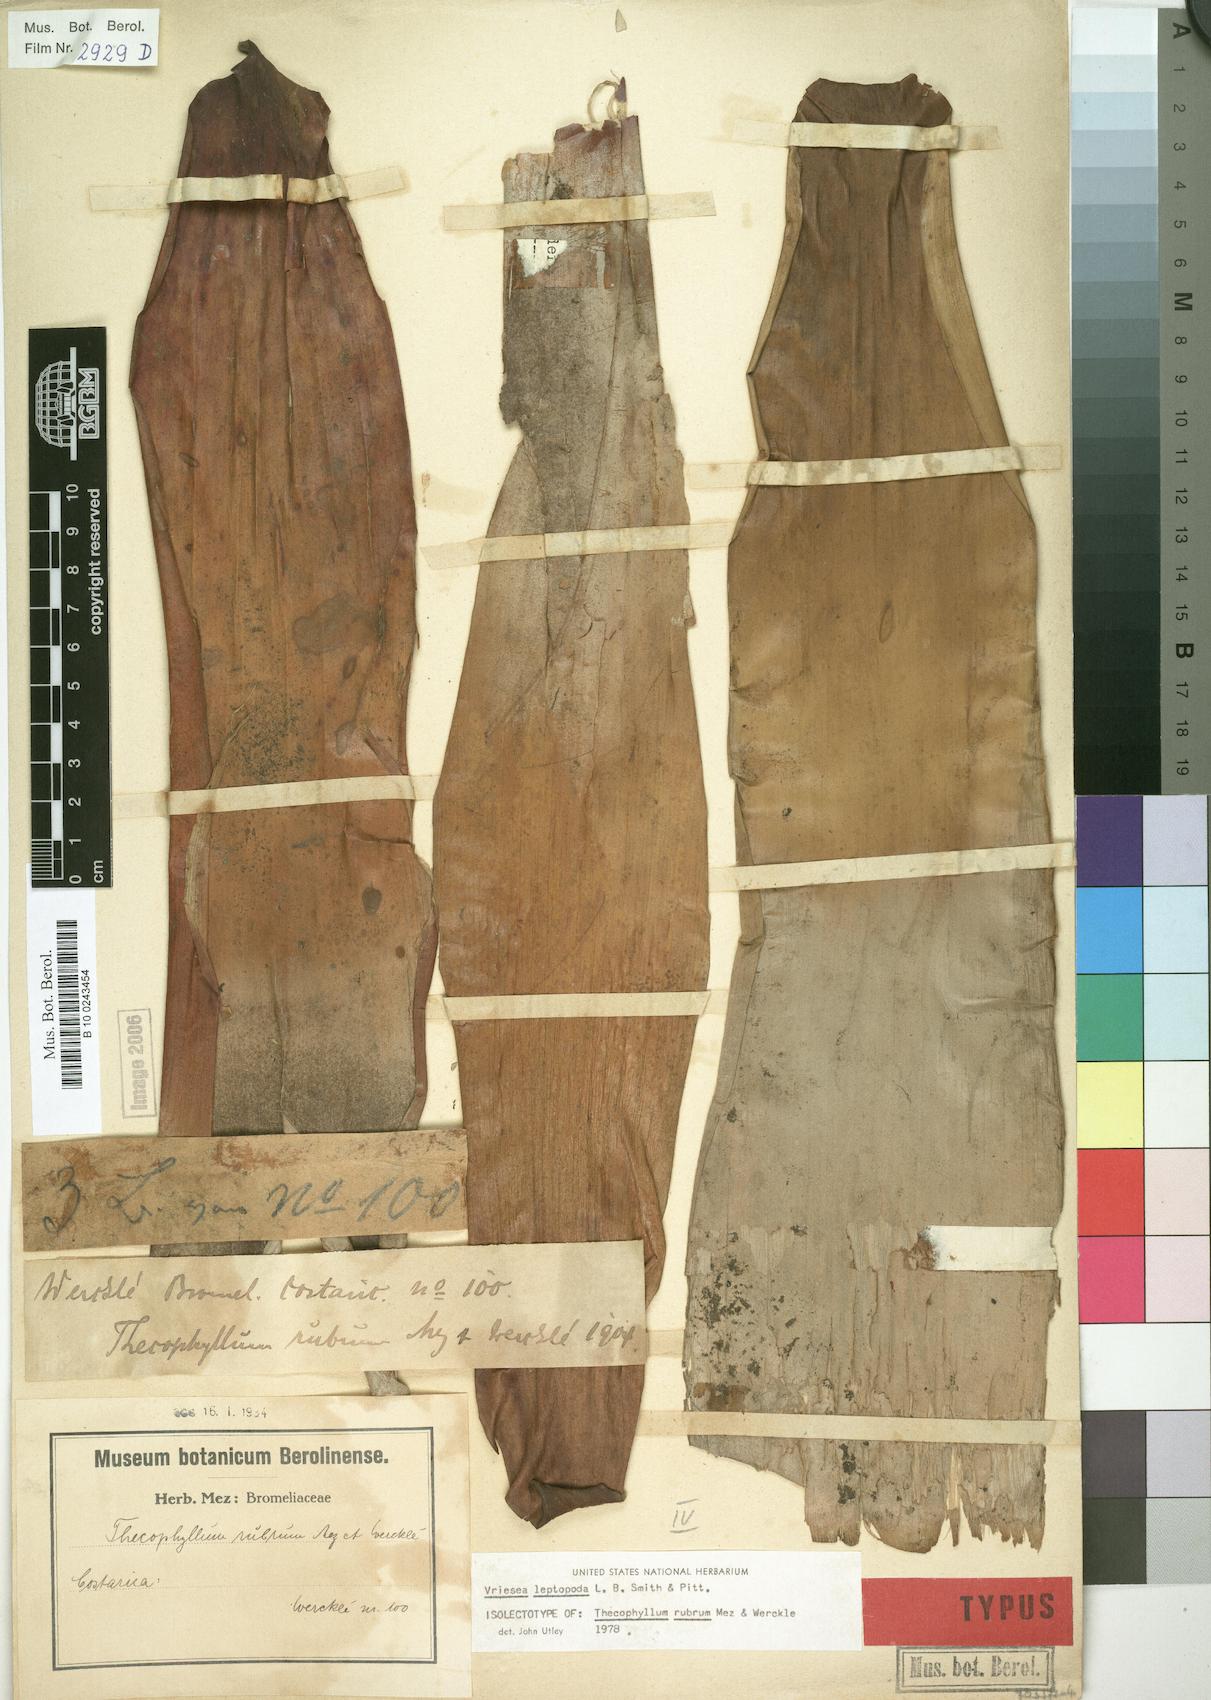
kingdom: Plantae
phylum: Tracheophyta
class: Liliopsida
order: Poales
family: Bromeliaceae
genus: Werauhia
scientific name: Werauhia rubra
